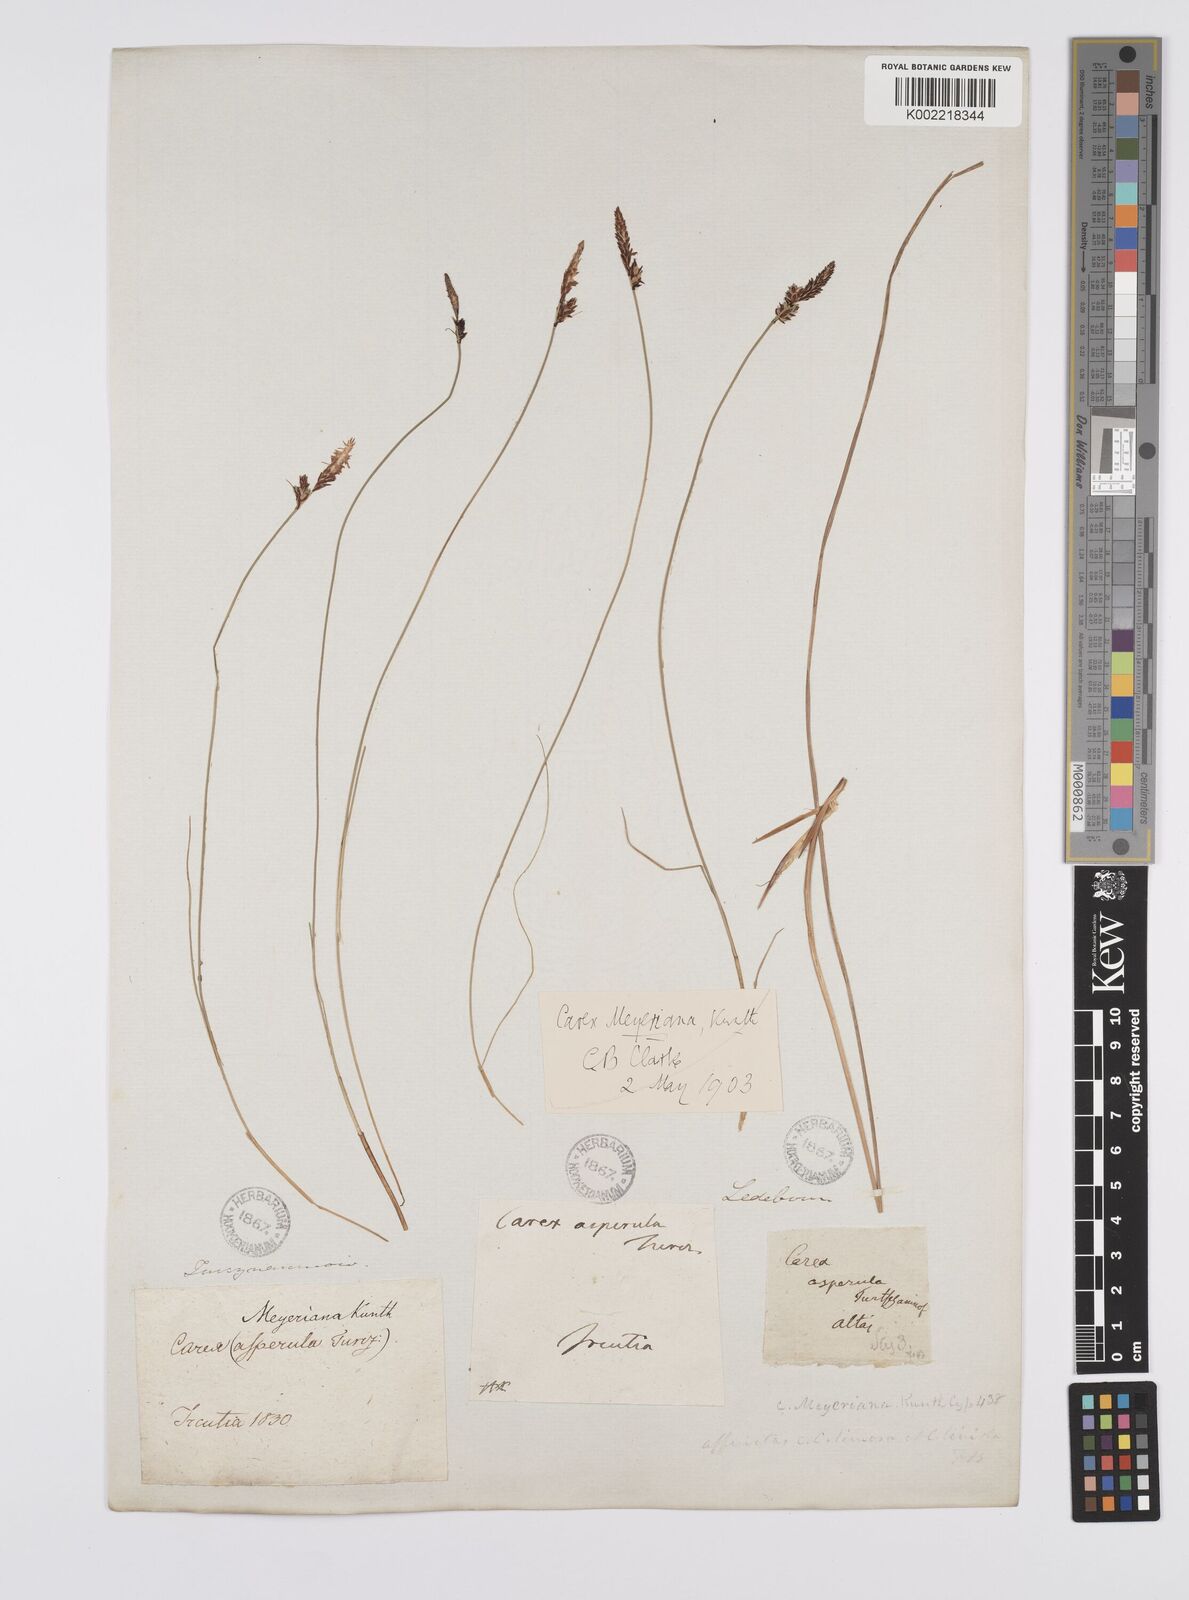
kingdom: Plantae
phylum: Tracheophyta
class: Liliopsida
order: Poales
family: Cyperaceae
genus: Carex
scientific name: Carex meyeriana
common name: Wula sedge
